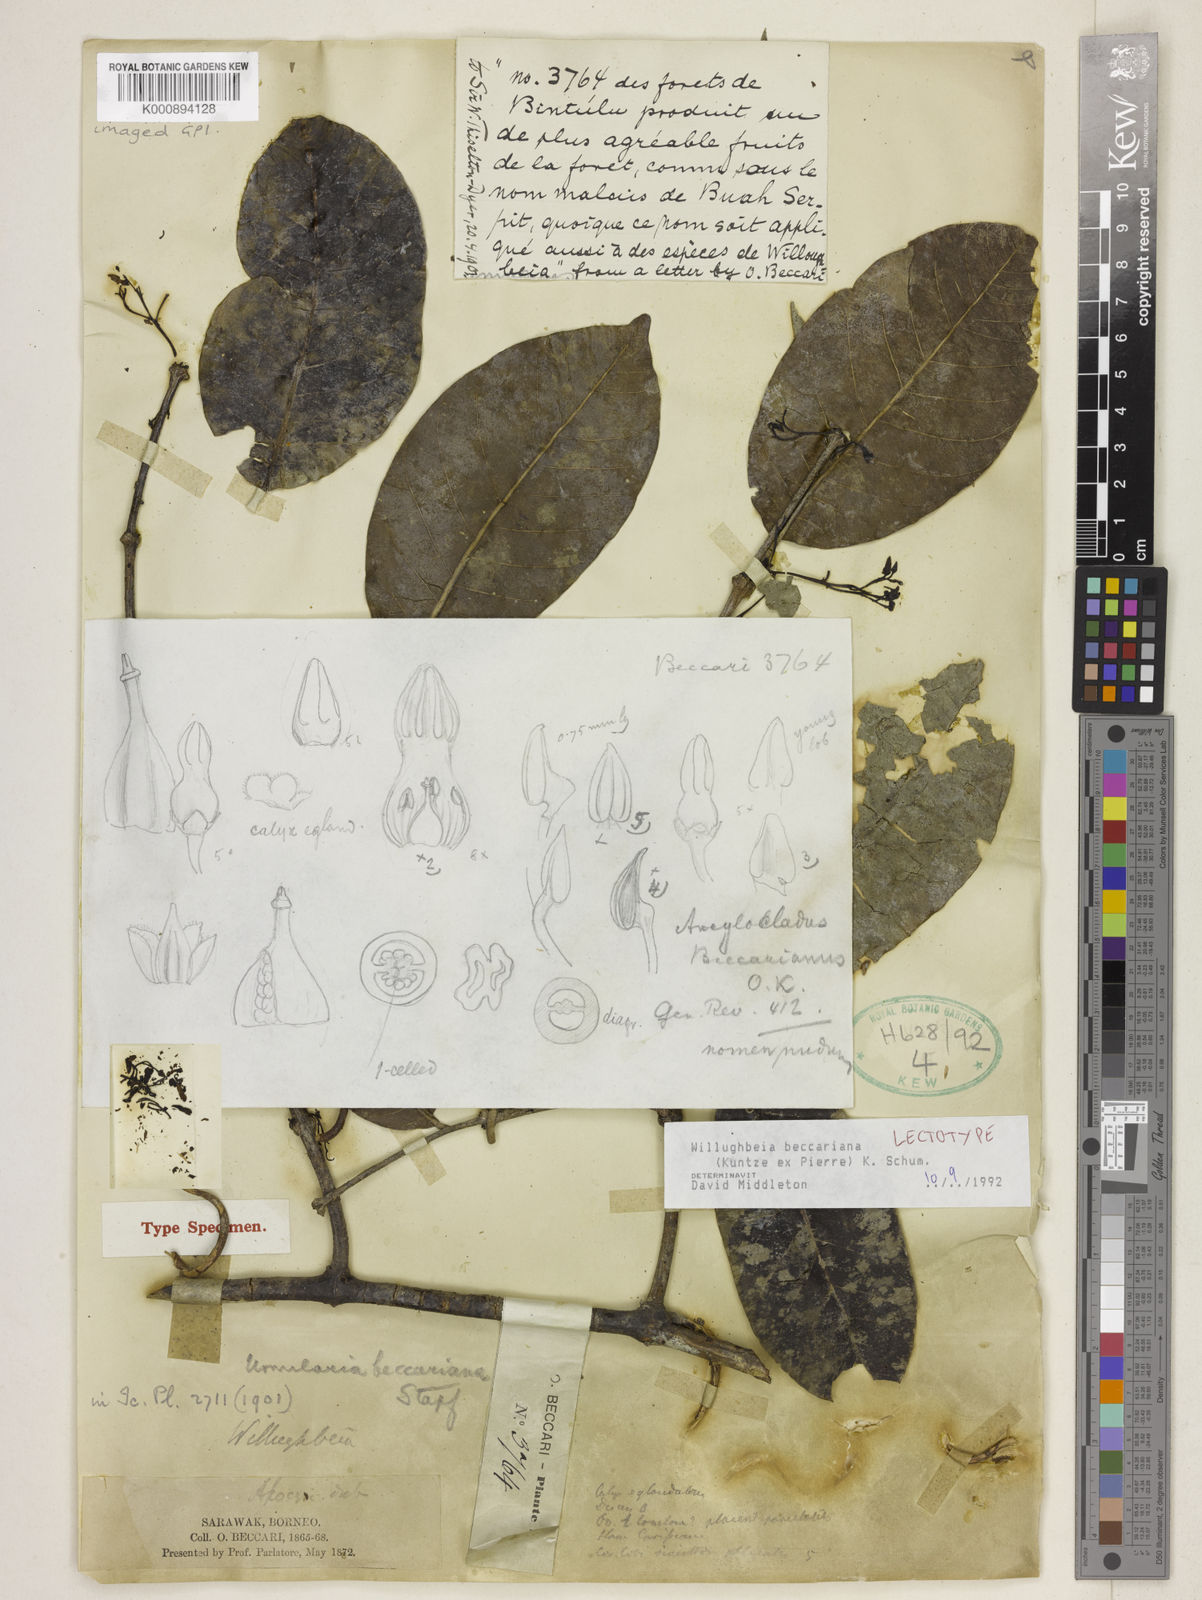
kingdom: Plantae
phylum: Tracheophyta
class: Magnoliopsida
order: Gentianales
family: Apocynaceae
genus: Willughbeia
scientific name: Willughbeia beccariana
